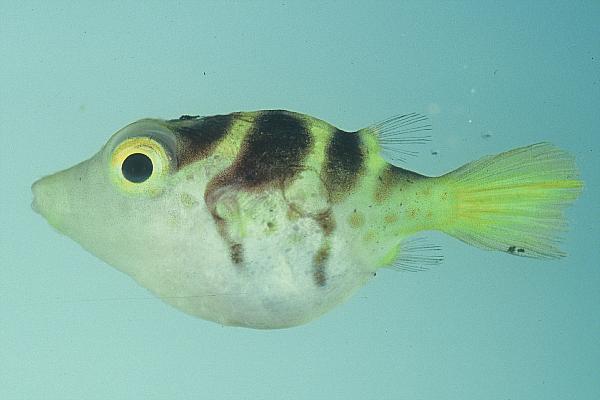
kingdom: Animalia
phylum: Chordata
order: Tetraodontiformes
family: Tetraodontidae
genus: Canthigaster
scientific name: Canthigaster valentini
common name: Banded toby
